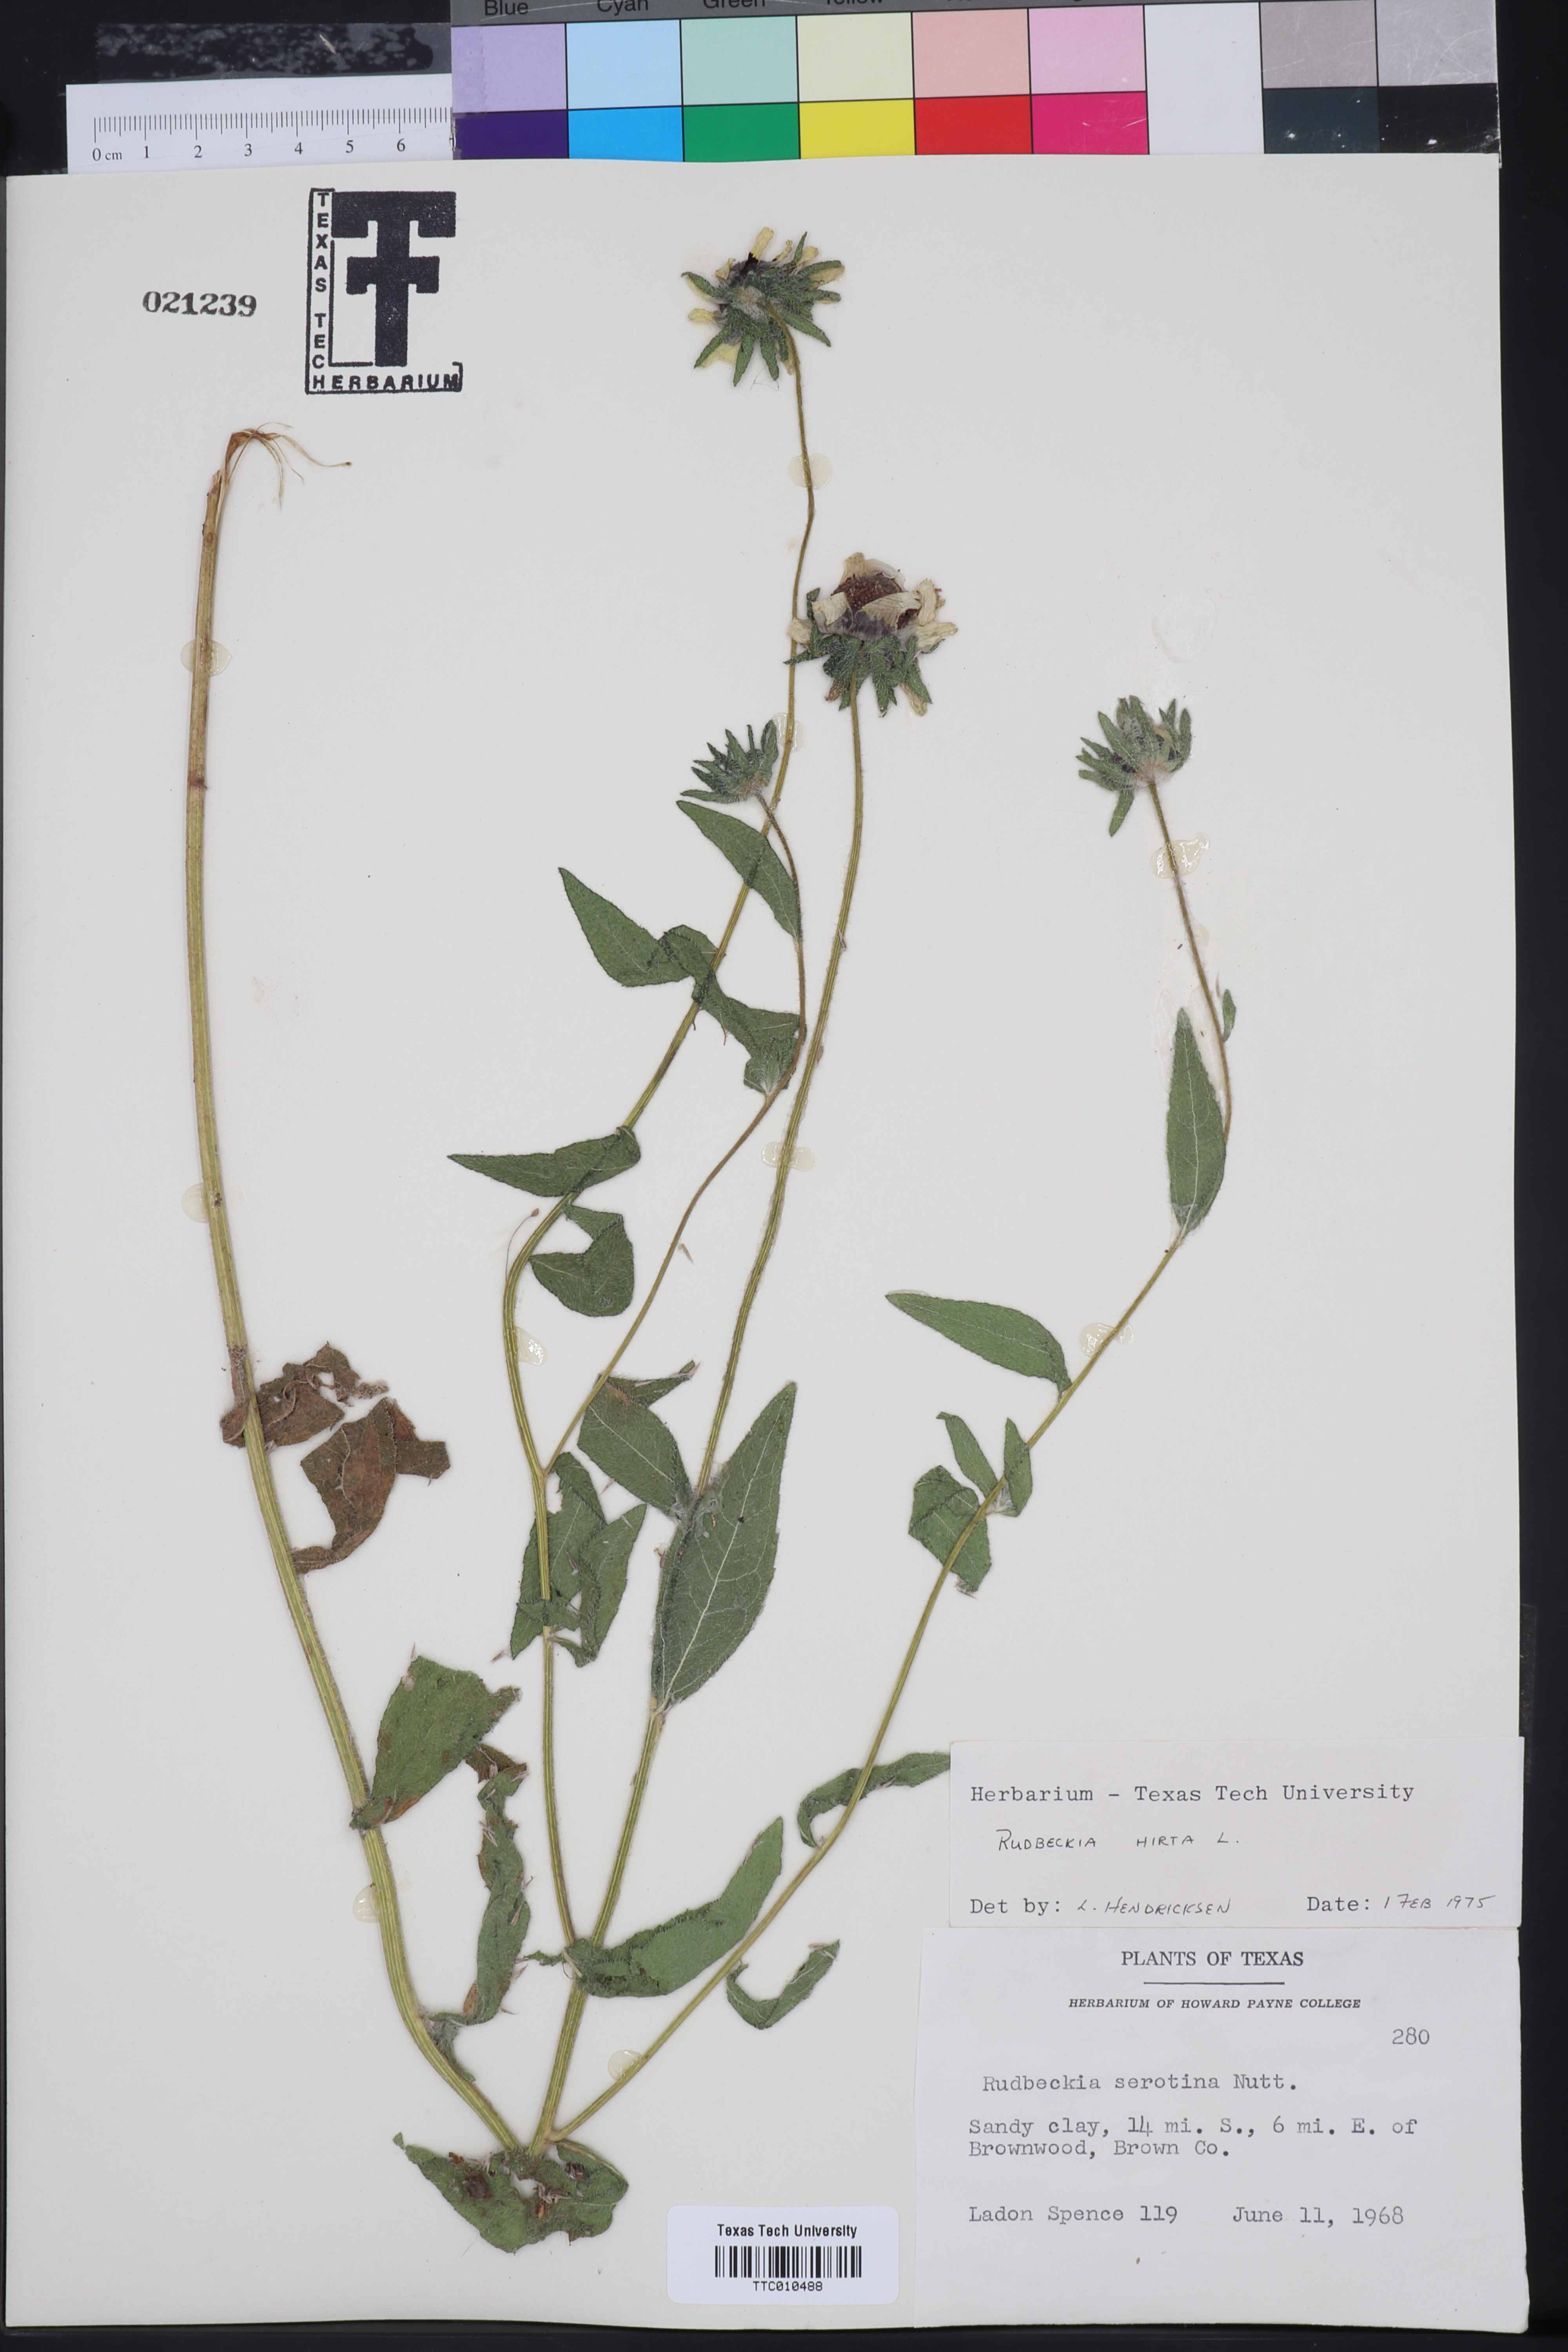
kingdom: Plantae
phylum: Tracheophyta
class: Magnoliopsida
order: Asterales
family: Asteraceae
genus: Rudbeckia
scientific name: Rudbeckia hirta
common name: Black-eyed-susan
